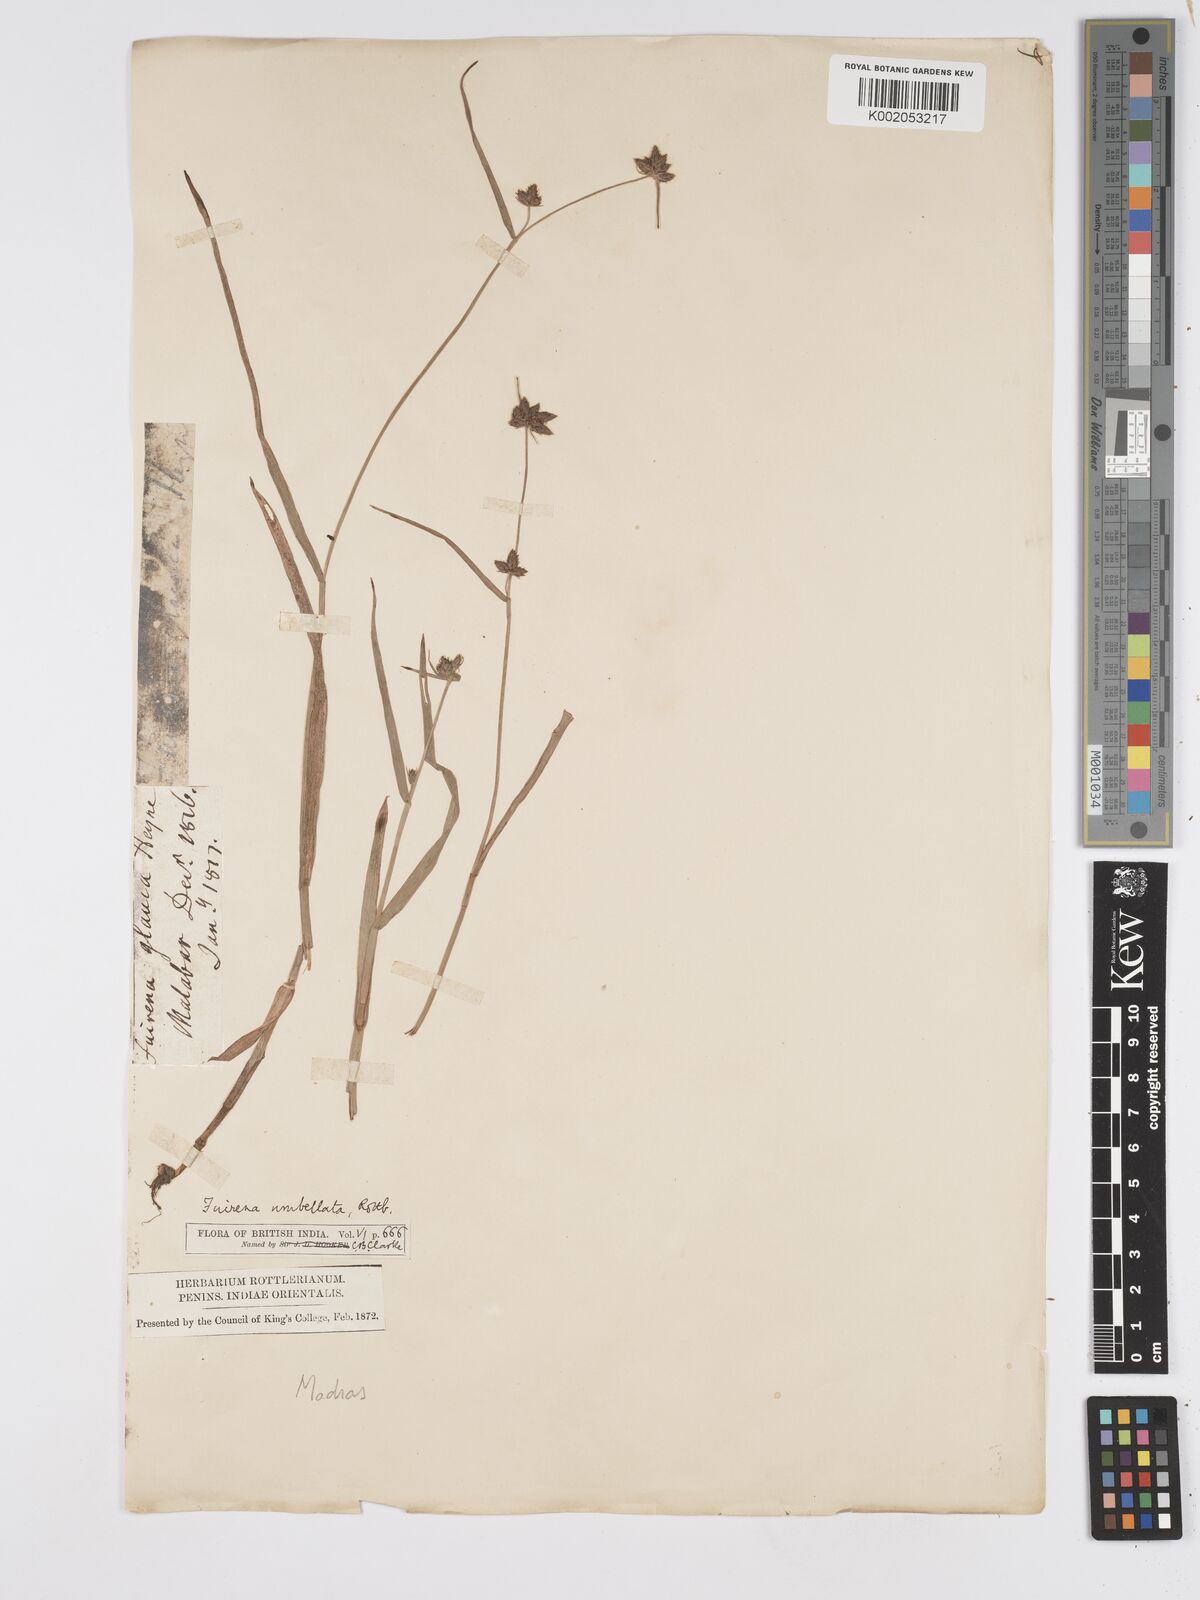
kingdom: Plantae
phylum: Tracheophyta
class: Liliopsida
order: Poales
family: Cyperaceae
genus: Fuirena
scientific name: Fuirena umbellata
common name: Yefen
